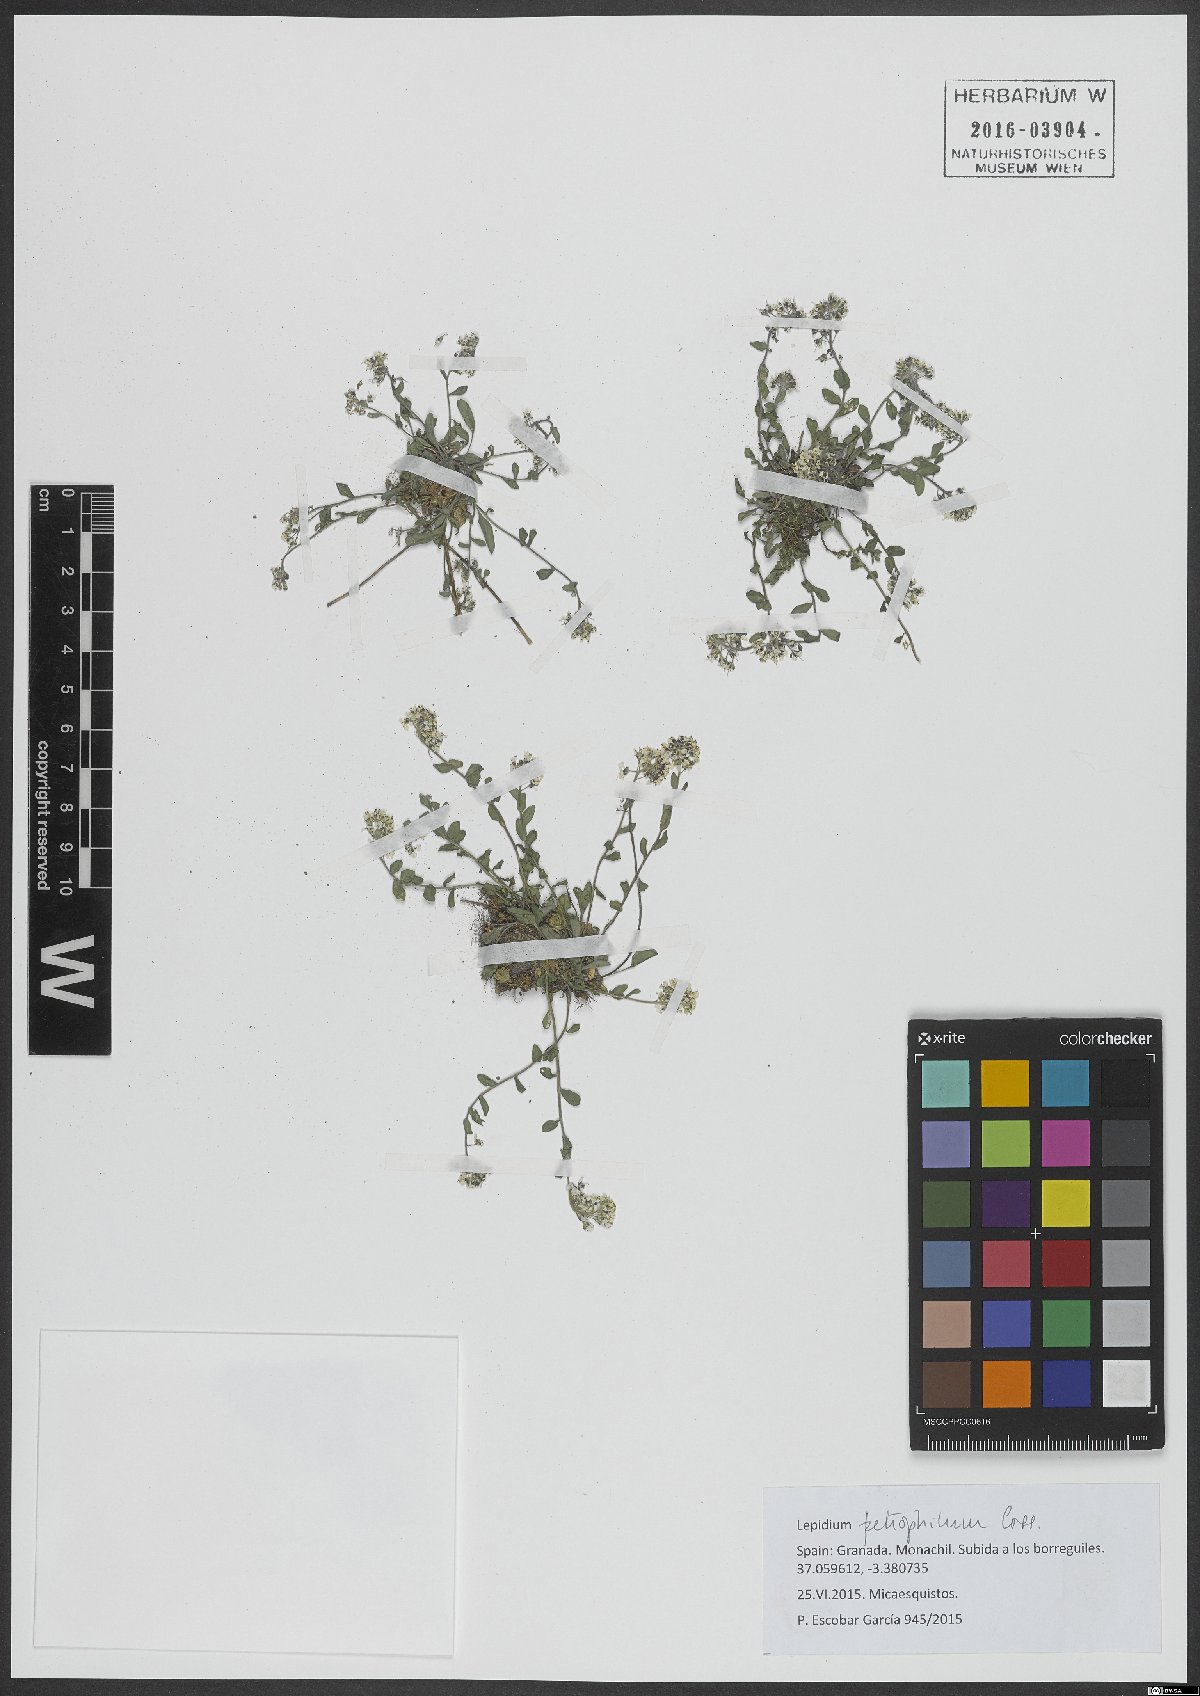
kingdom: Plantae
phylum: Tracheophyta
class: Magnoliopsida
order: Brassicales
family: Brassicaceae
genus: Lepidium
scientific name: Lepidium hirtum
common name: Mediterranean pepperweed
